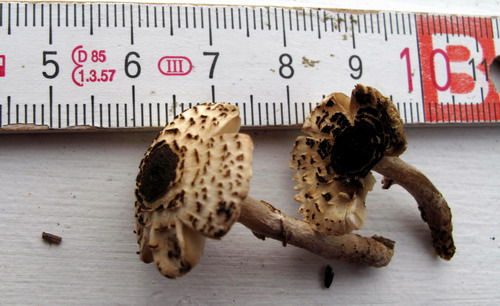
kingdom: Fungi
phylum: Basidiomycota
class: Agaricomycetes
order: Agaricales
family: Agaricaceae
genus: Lepiota
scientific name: Lepiota felina
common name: sortskællet parasolhat
